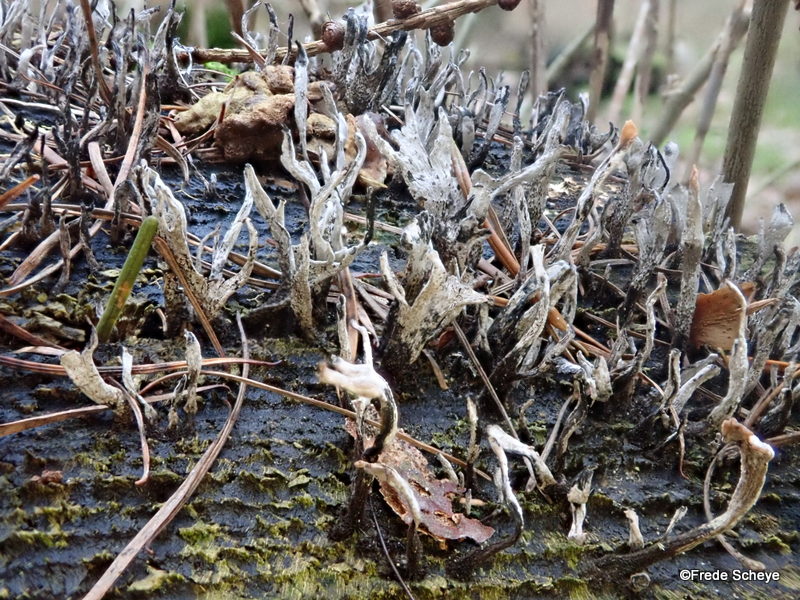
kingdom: Fungi
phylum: Ascomycota
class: Sordariomycetes
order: Xylariales
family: Xylariaceae
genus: Xylaria
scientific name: Xylaria hypoxylon
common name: grenet stødsvamp
